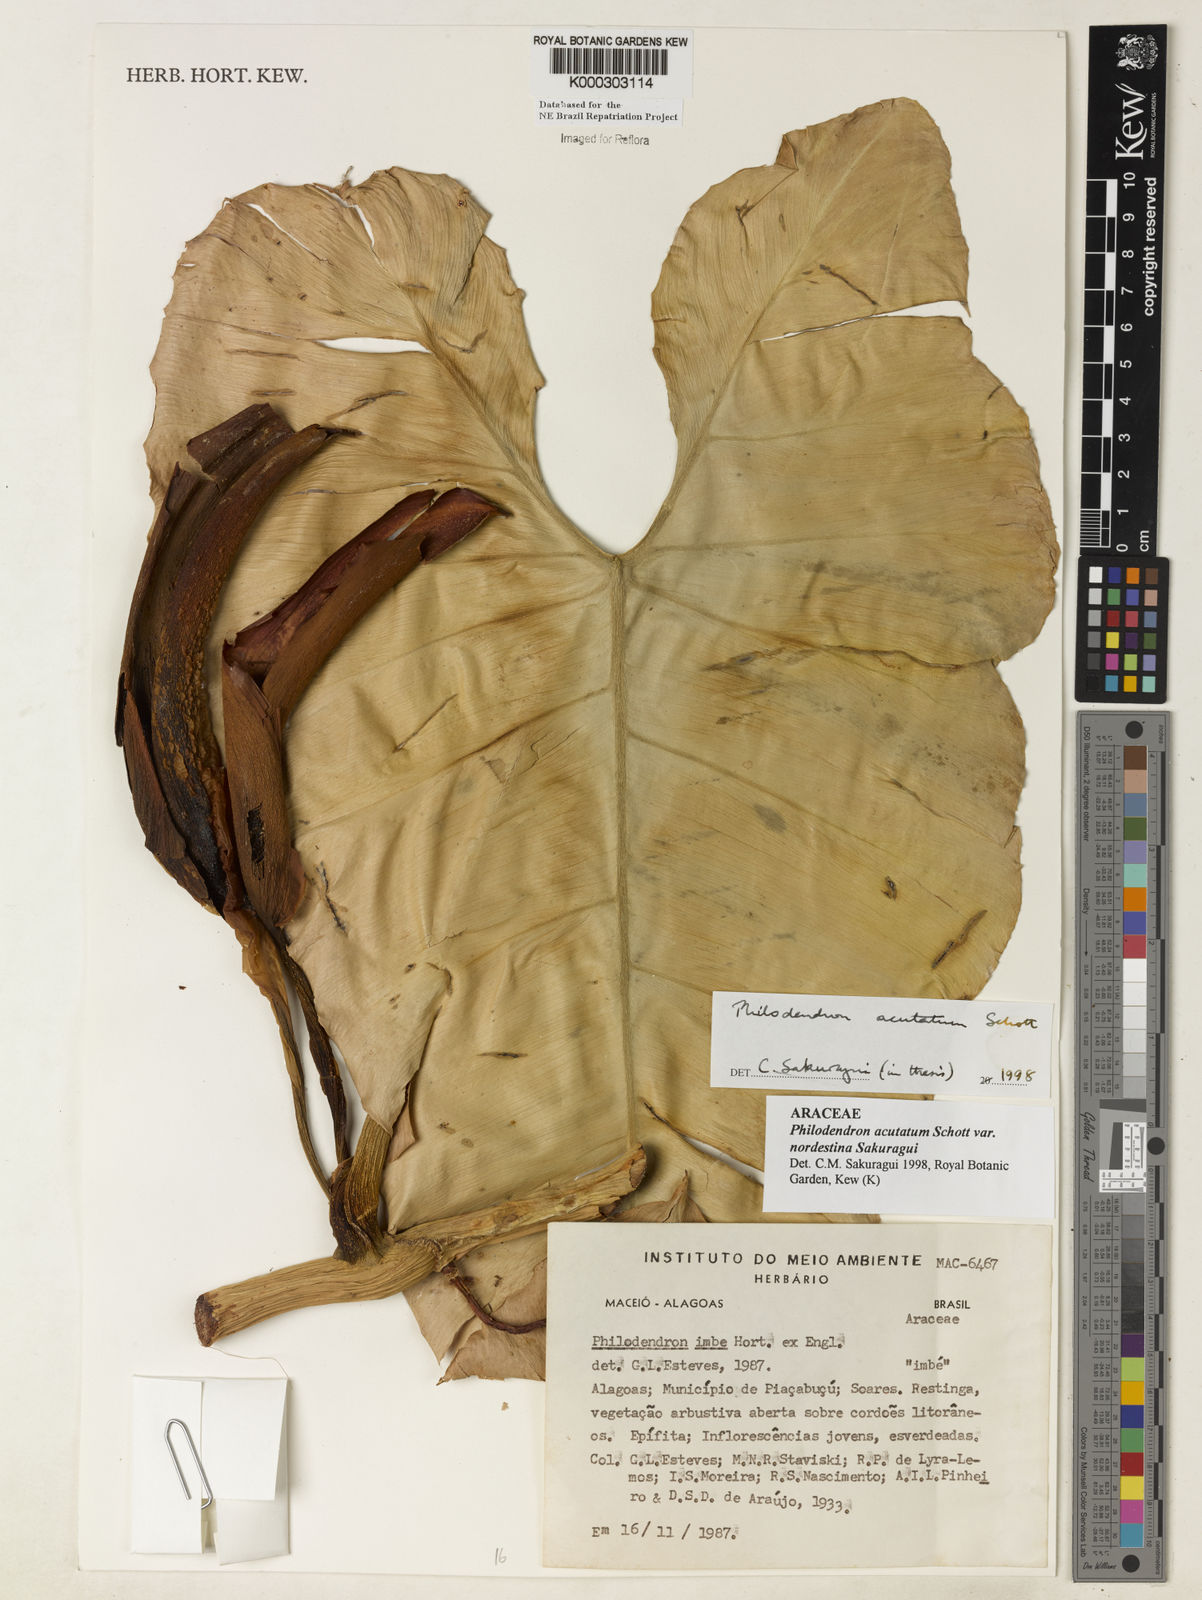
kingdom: Plantae
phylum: Tracheophyta
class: Liliopsida
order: Alismatales
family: Araceae
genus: Philodendron
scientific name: Philodendron quinquenervium
